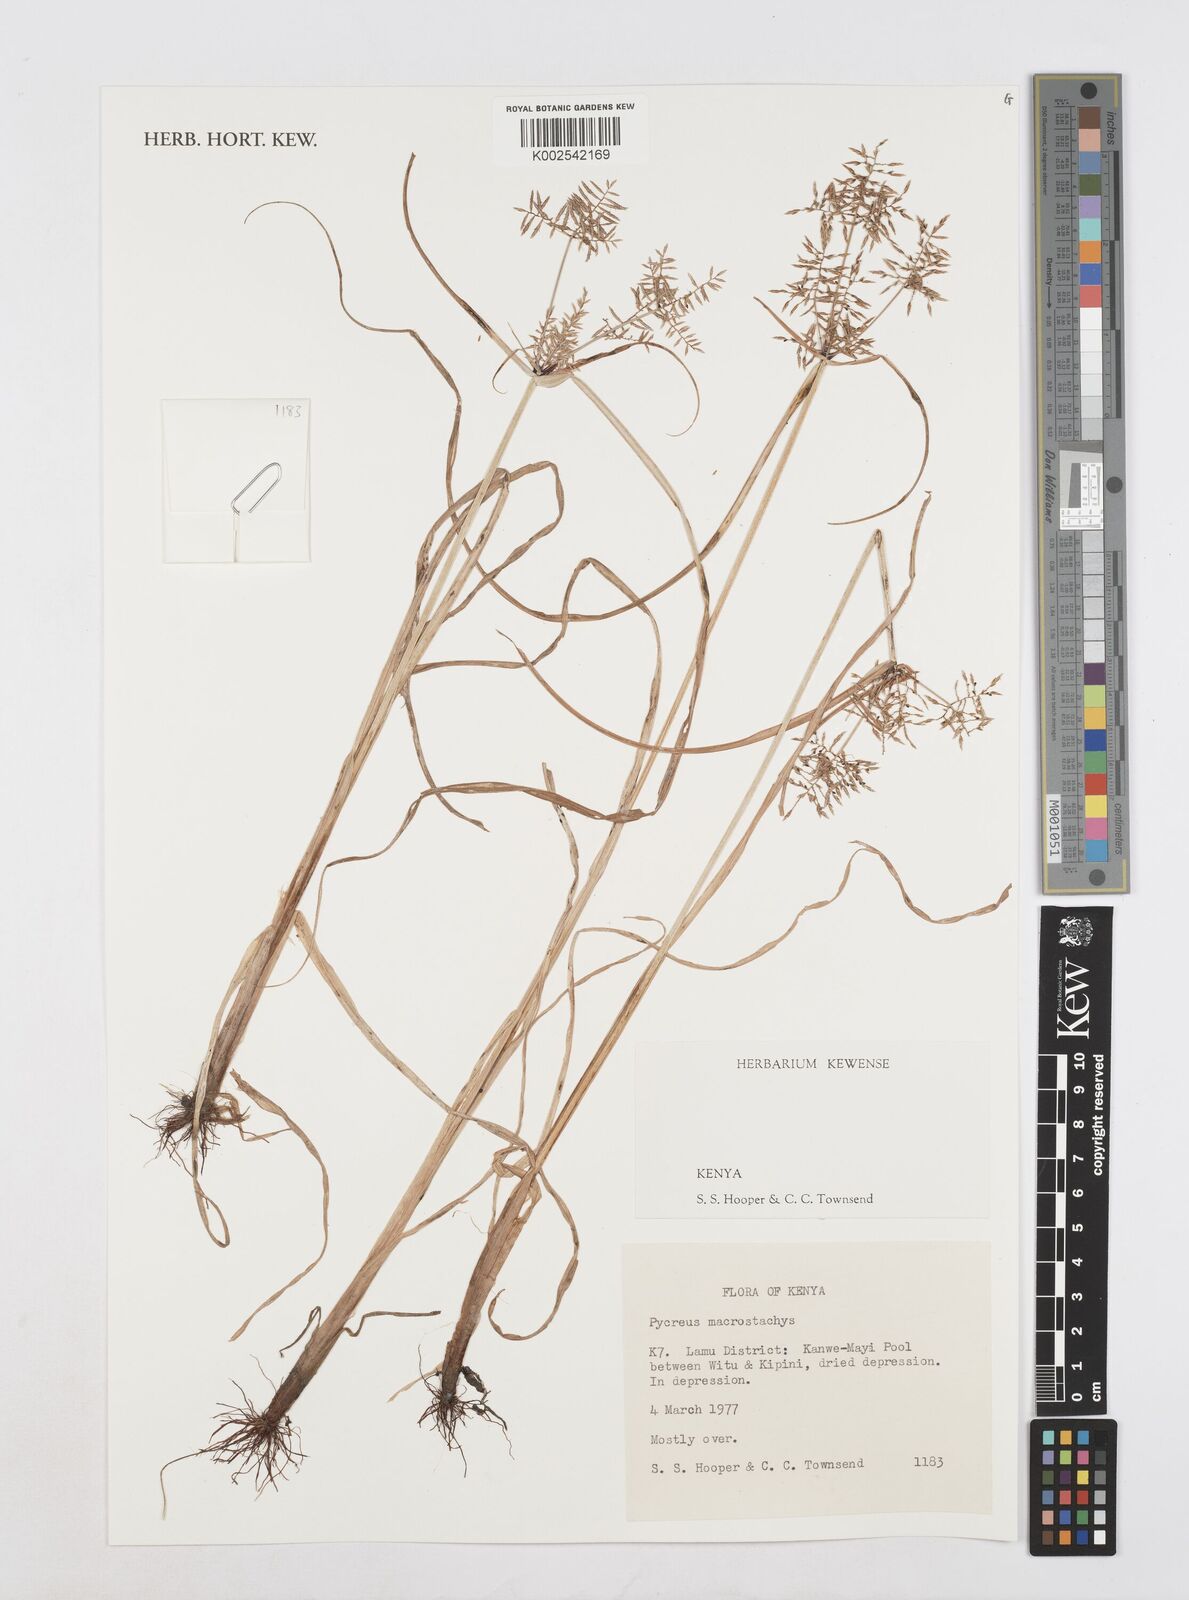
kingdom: Plantae
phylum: Tracheophyta
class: Liliopsida
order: Poales
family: Cyperaceae
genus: Cyperus
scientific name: Cyperus macrostachyos
